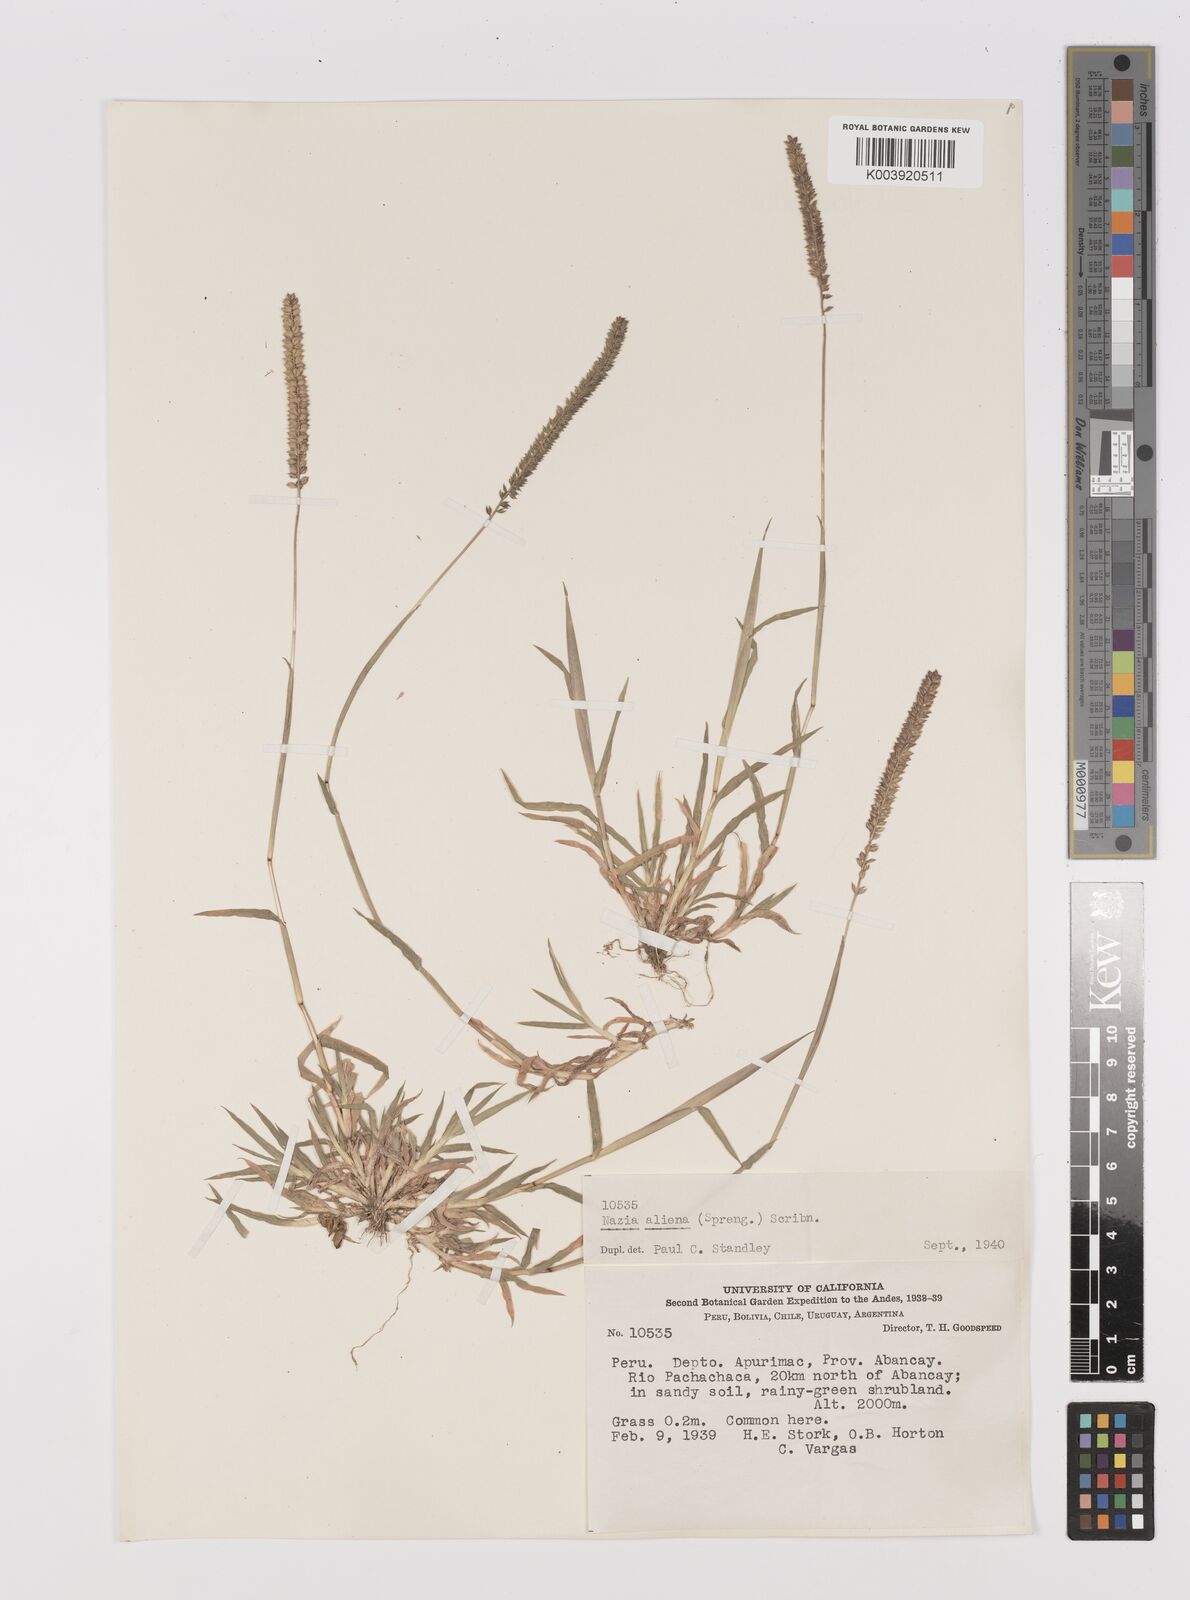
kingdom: Plantae
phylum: Tracheophyta
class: Liliopsida
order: Poales
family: Poaceae
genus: Tragus
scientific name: Tragus berteronianus
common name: African bur-grass
